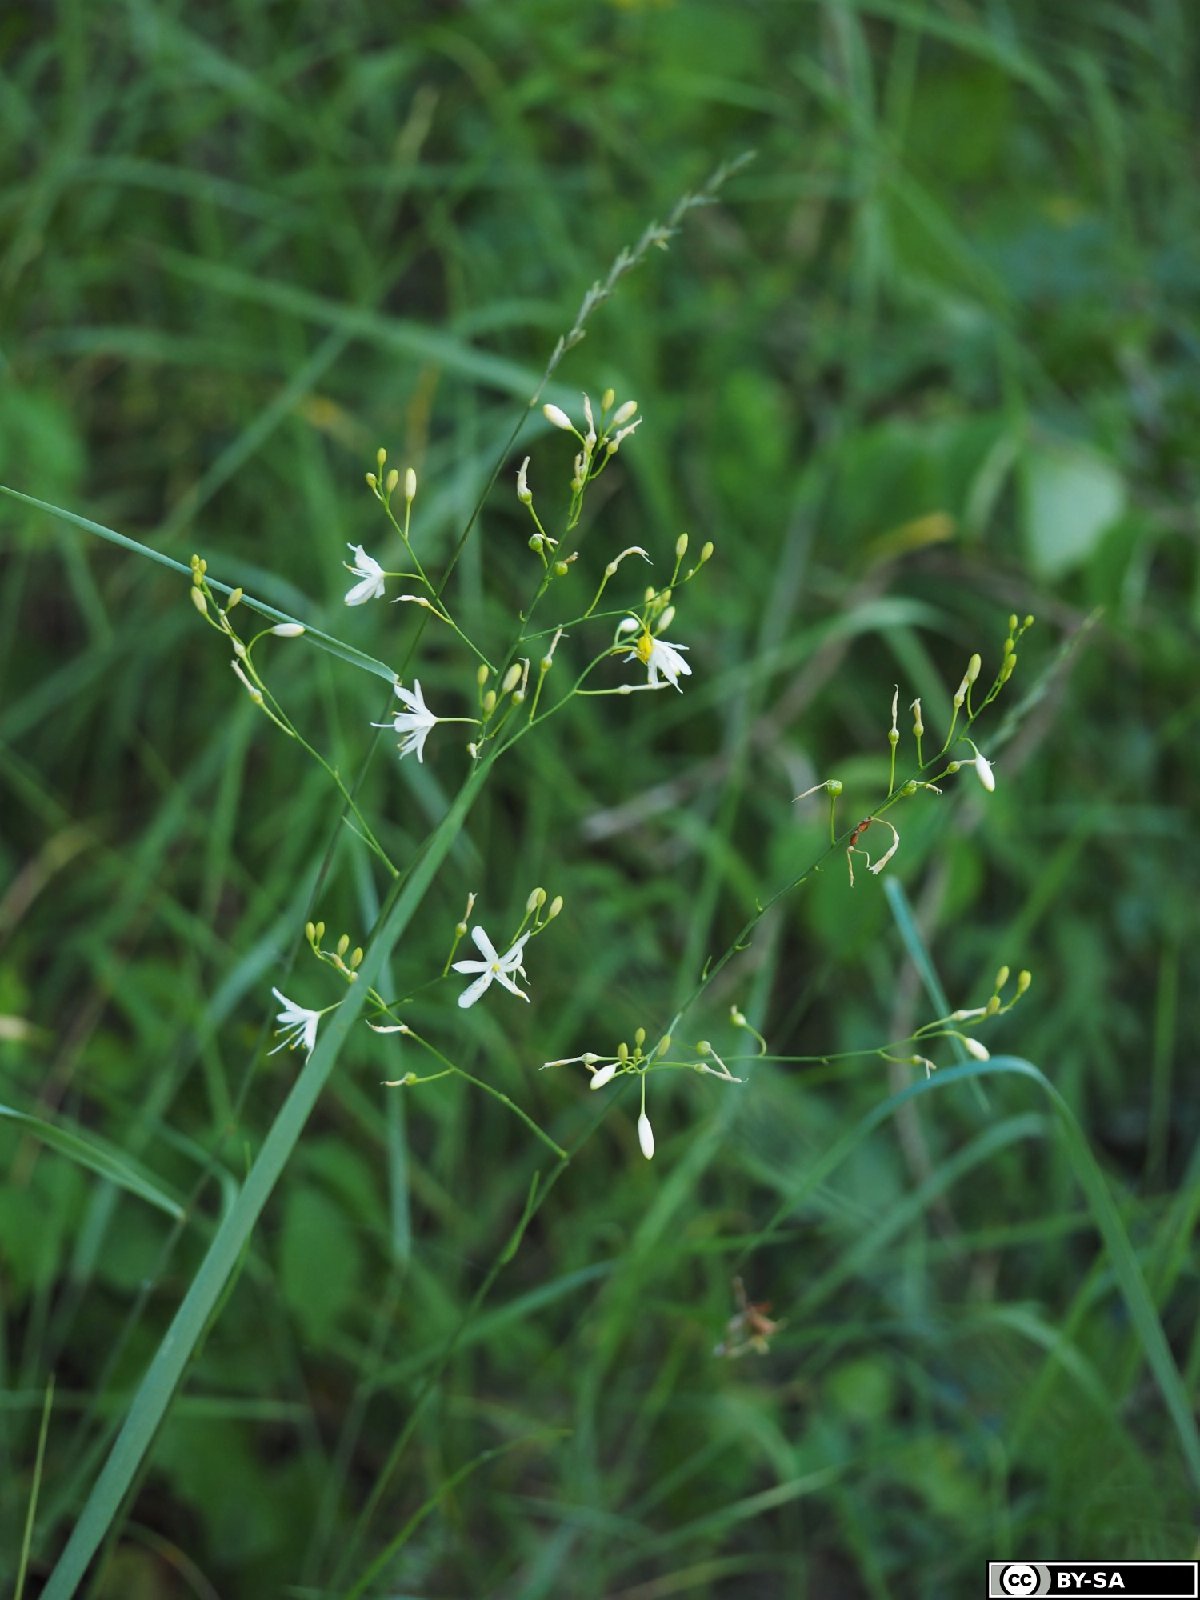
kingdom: Plantae
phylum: Tracheophyta
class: Liliopsida
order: Asparagales
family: Asparagaceae
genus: Anthericum
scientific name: Anthericum ramosum
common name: Branched st. bernard's-lily
